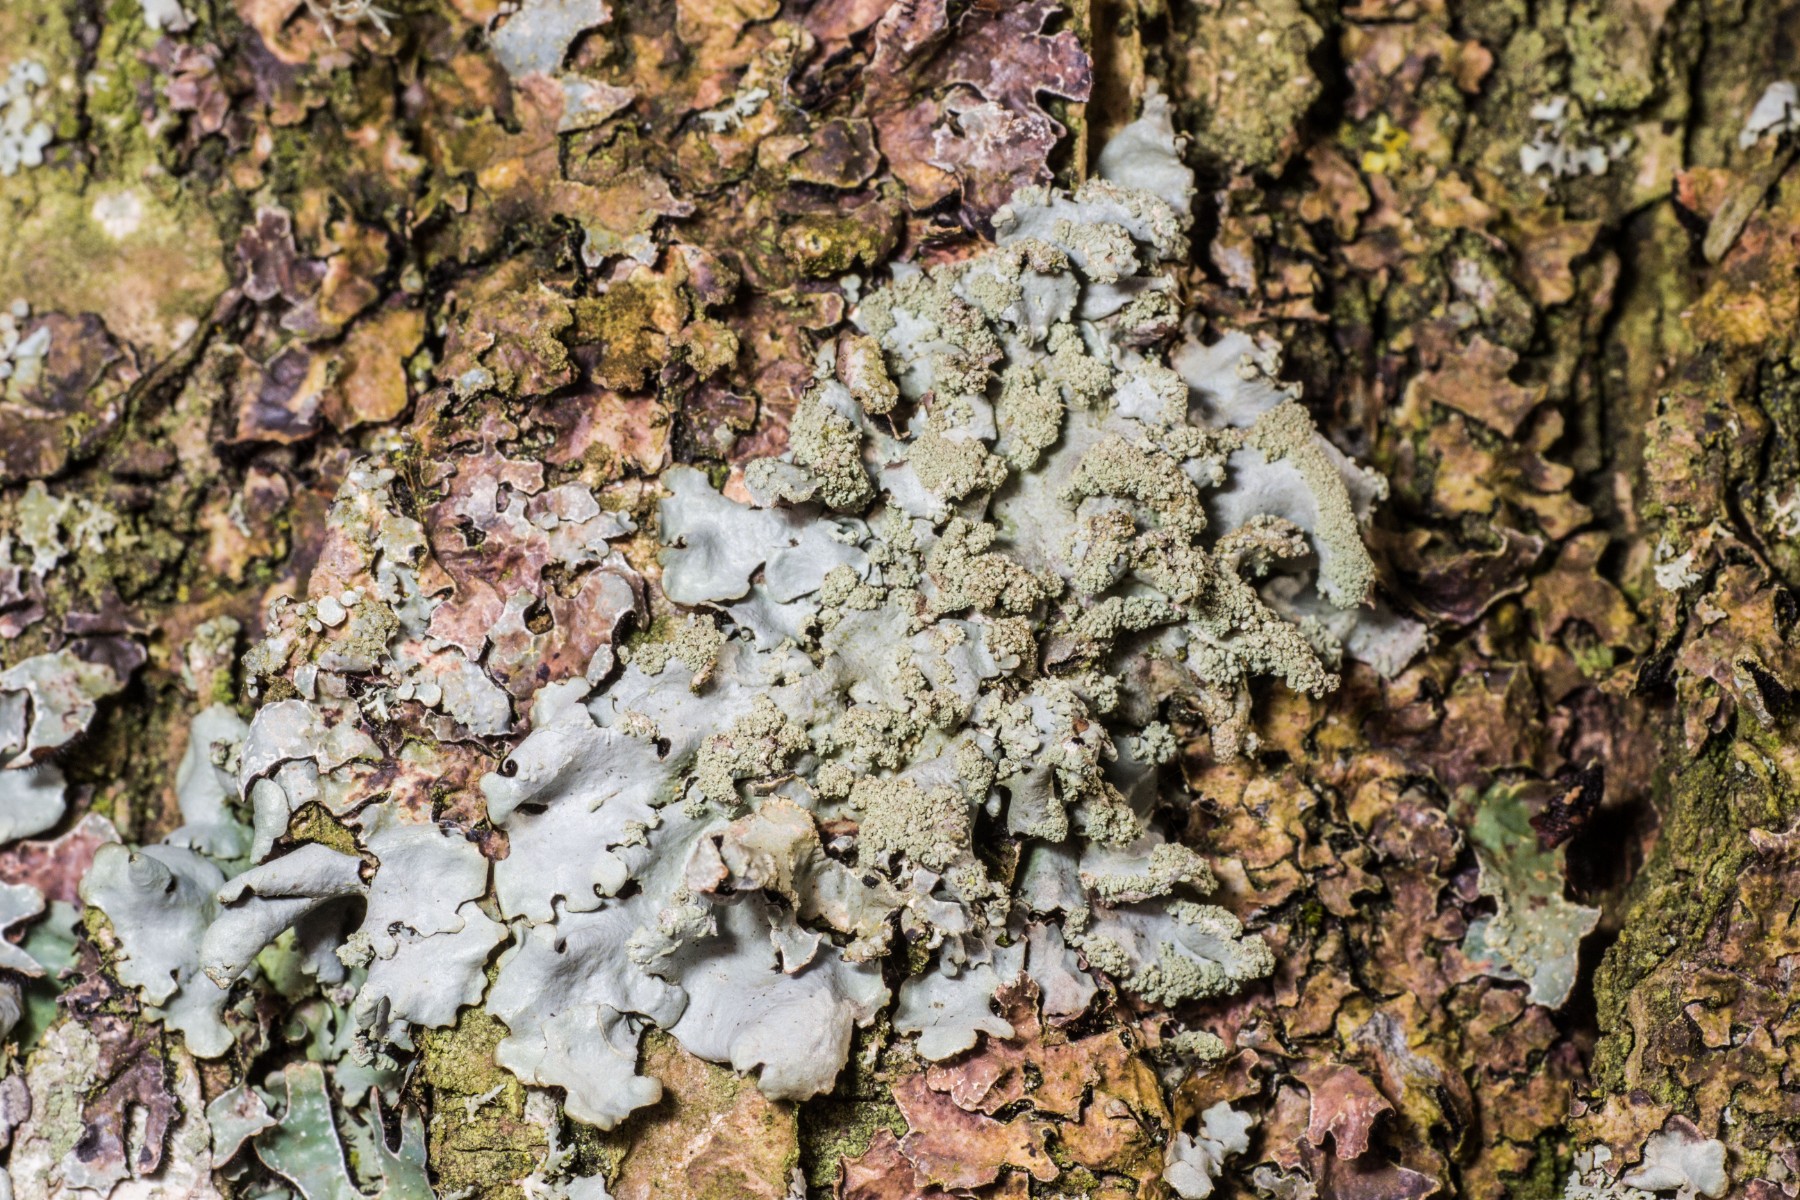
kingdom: Fungi
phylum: Ascomycota
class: Lecanoromycetes
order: Lecanorales
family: Parmeliaceae
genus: Hypotrachyna
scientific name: Hypotrachyna afrorevoluta
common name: kyst-skållav
